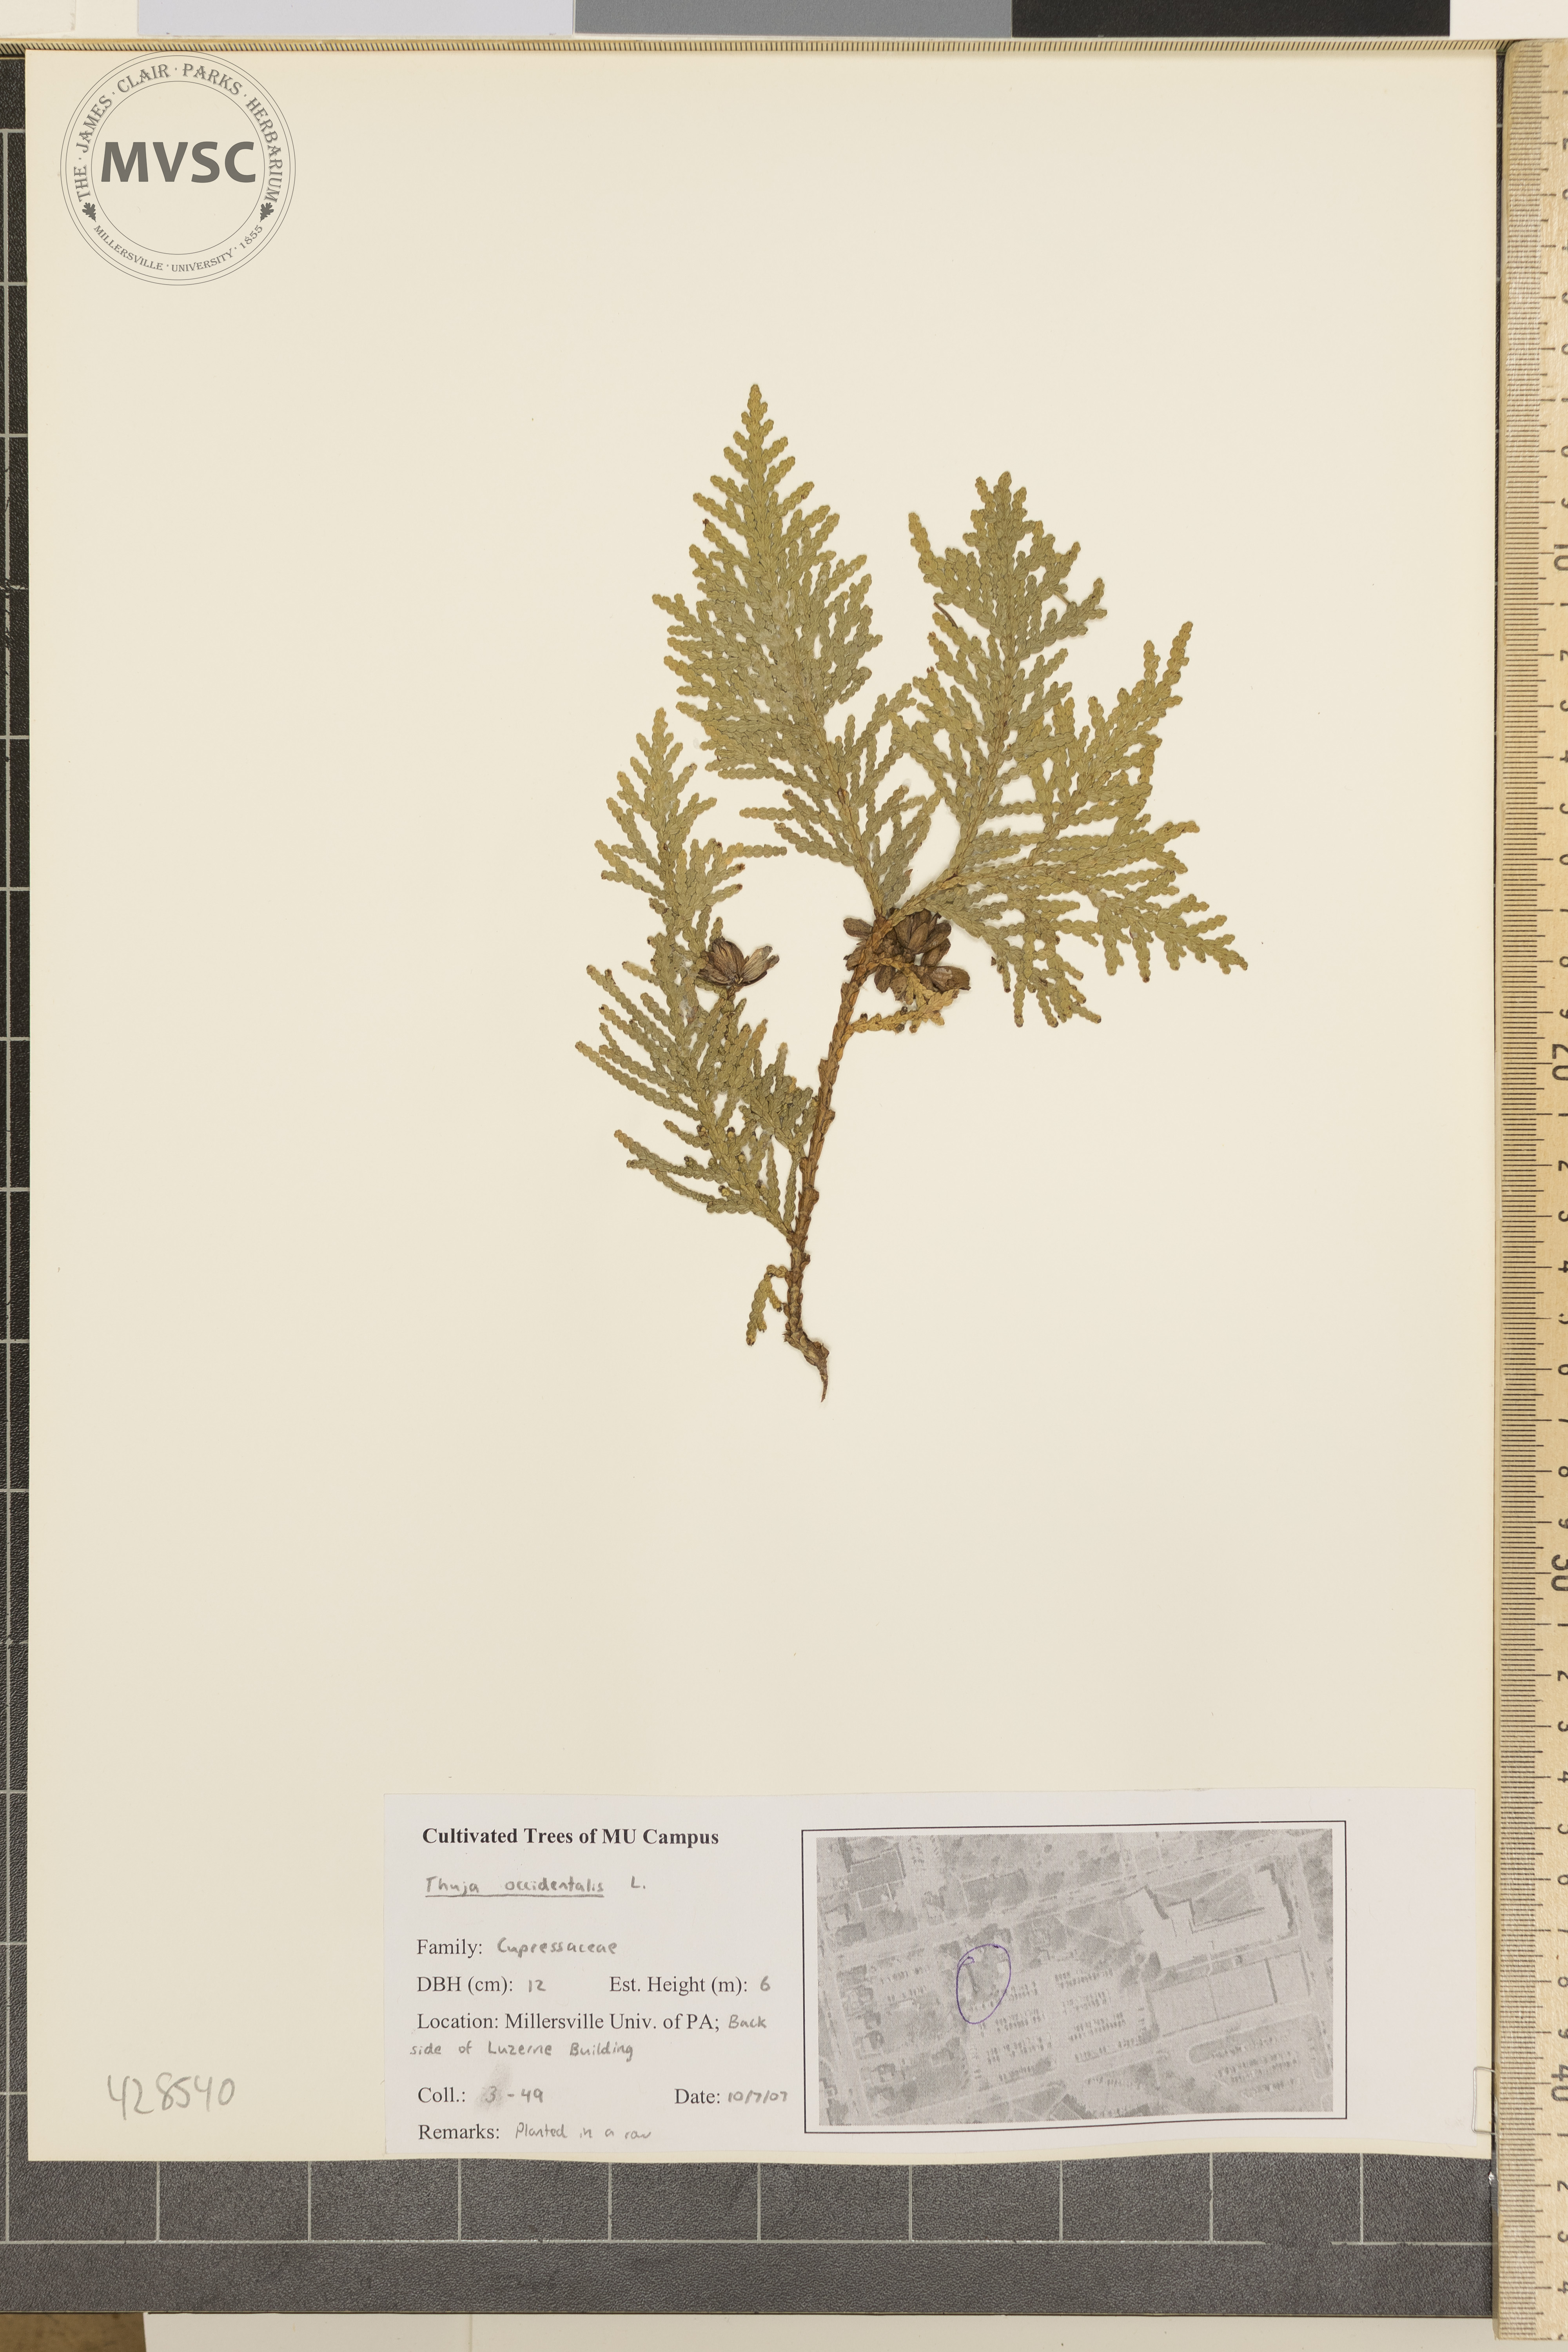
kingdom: Plantae
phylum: Tracheophyta
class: Pinopsida
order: Pinales
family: Cupressaceae
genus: Thuja
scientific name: Thuja occidentalis
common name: Arborvitae
